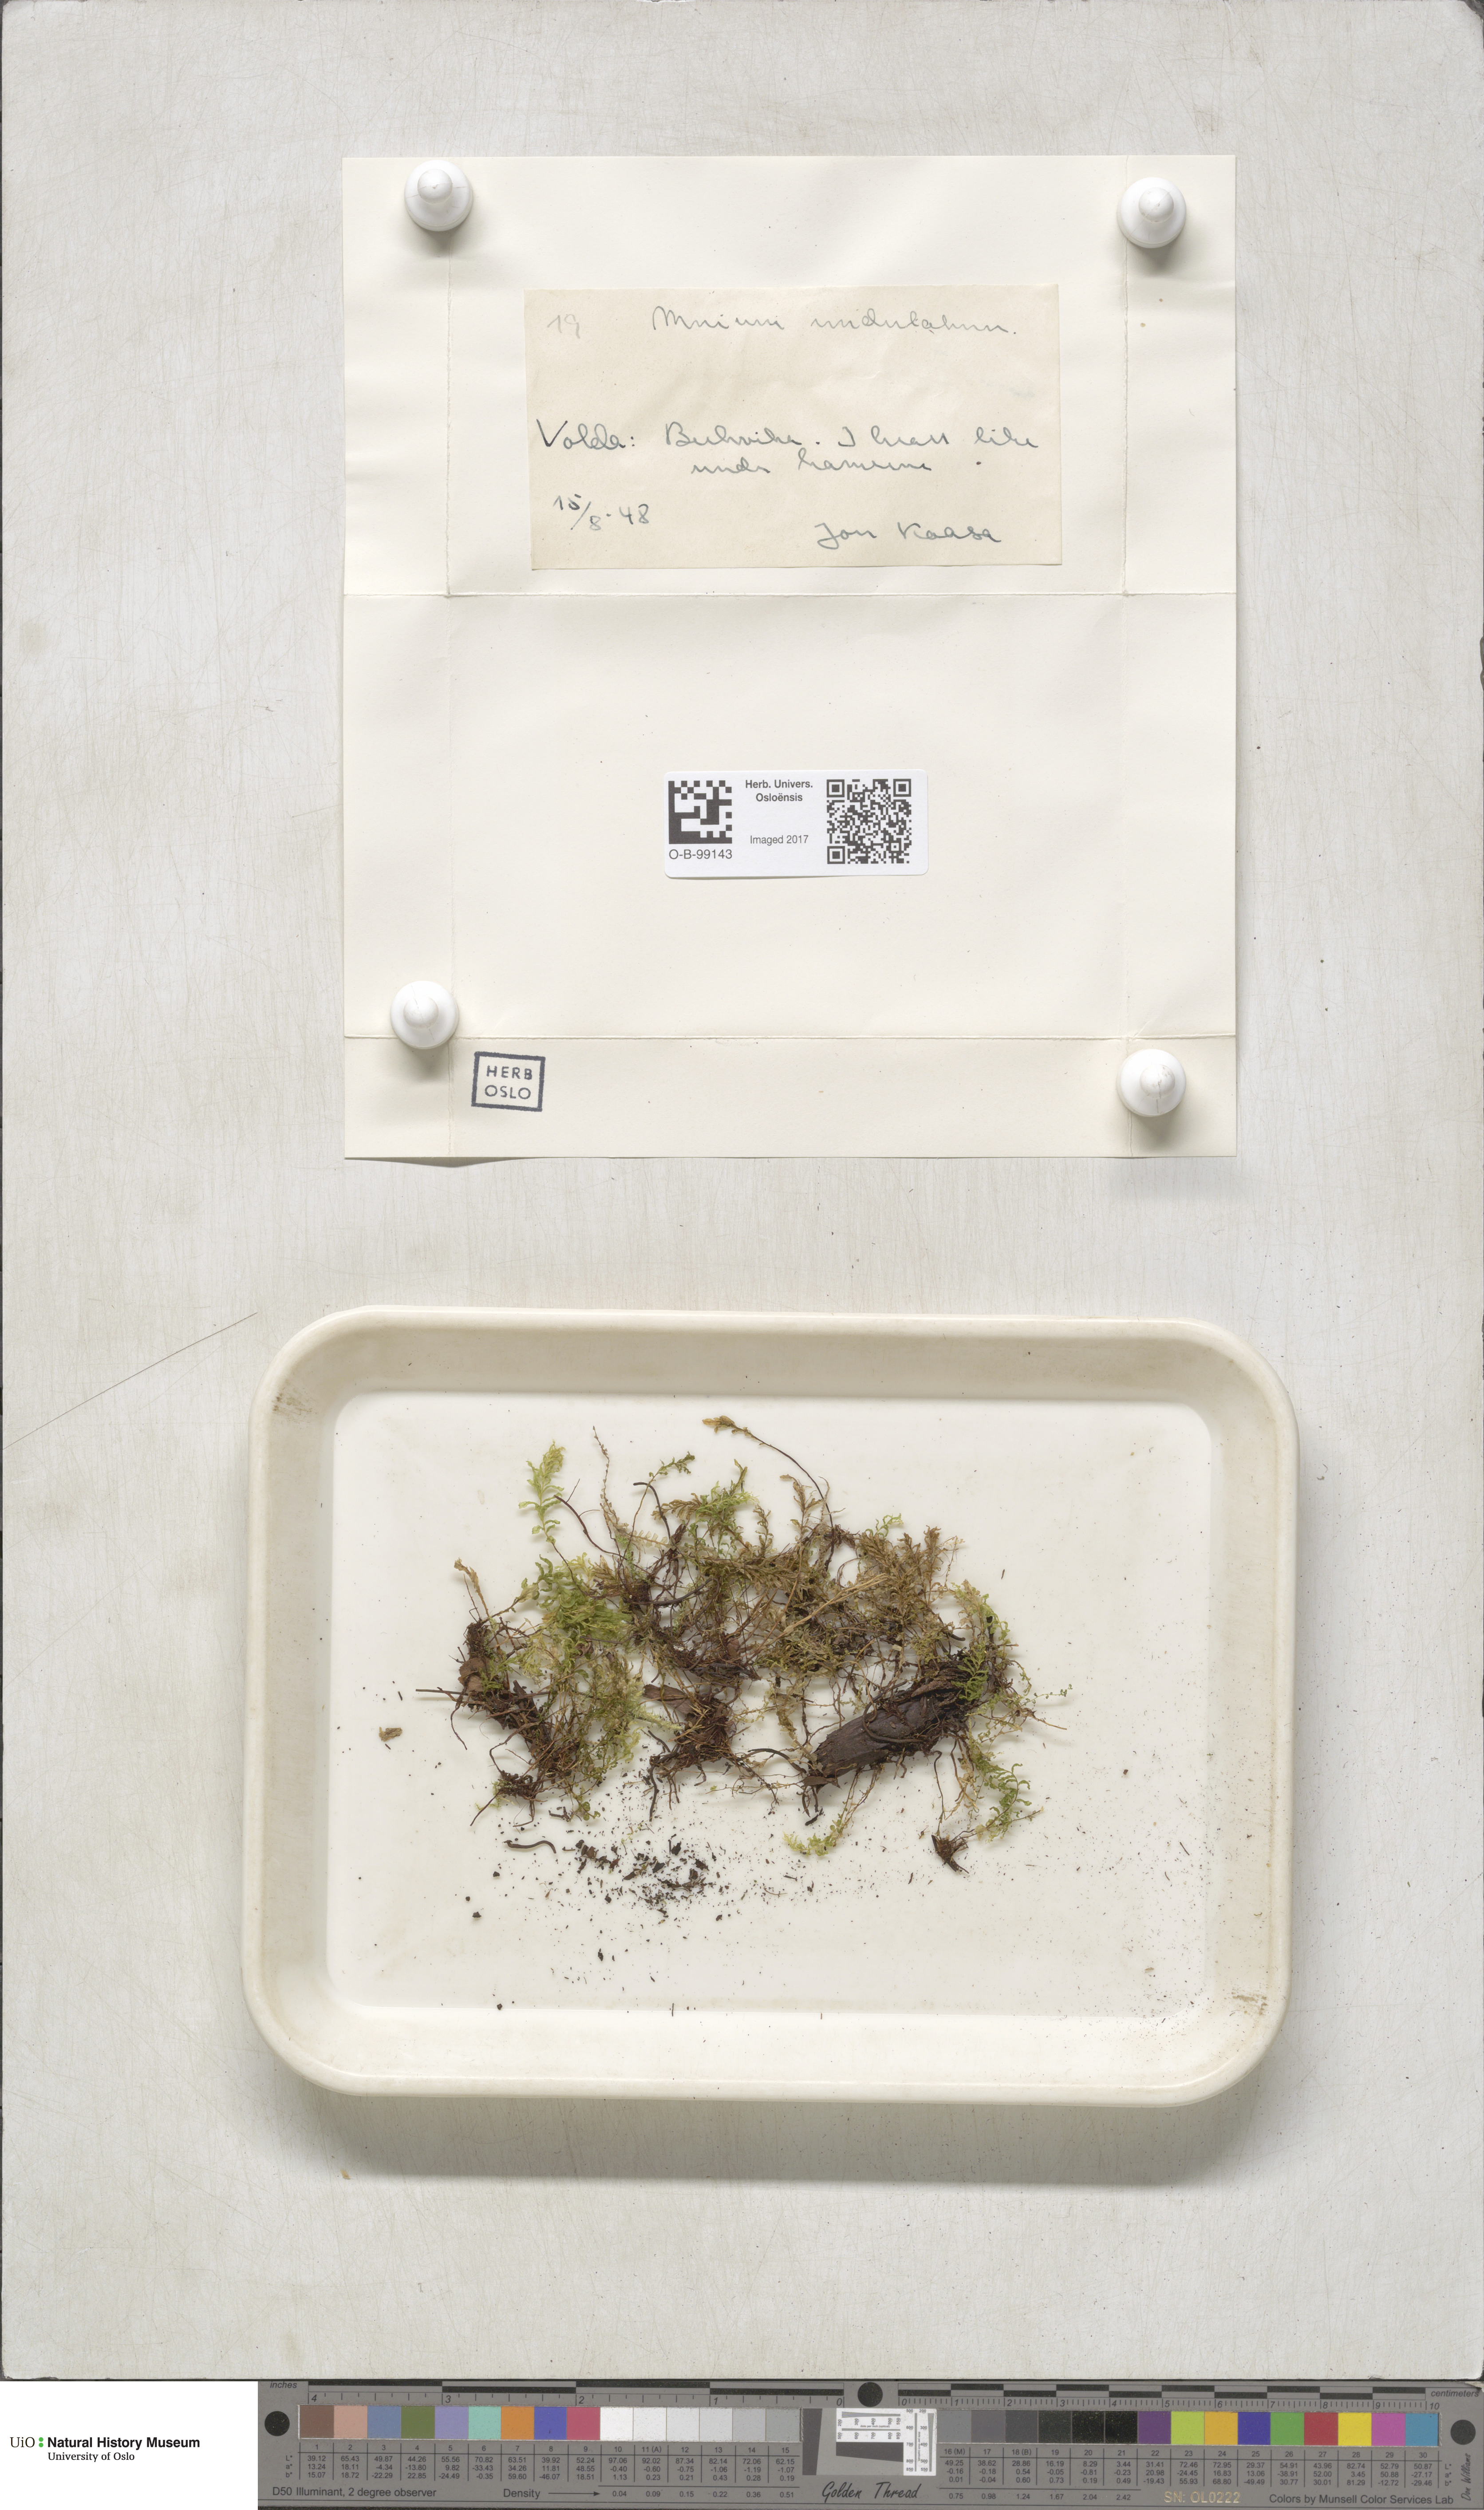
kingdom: Plantae
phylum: Bryophyta
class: Bryopsida
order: Bryales
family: Mniaceae
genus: Plagiomnium
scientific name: Plagiomnium undulatum
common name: Hart's-tongue thyme-moss
